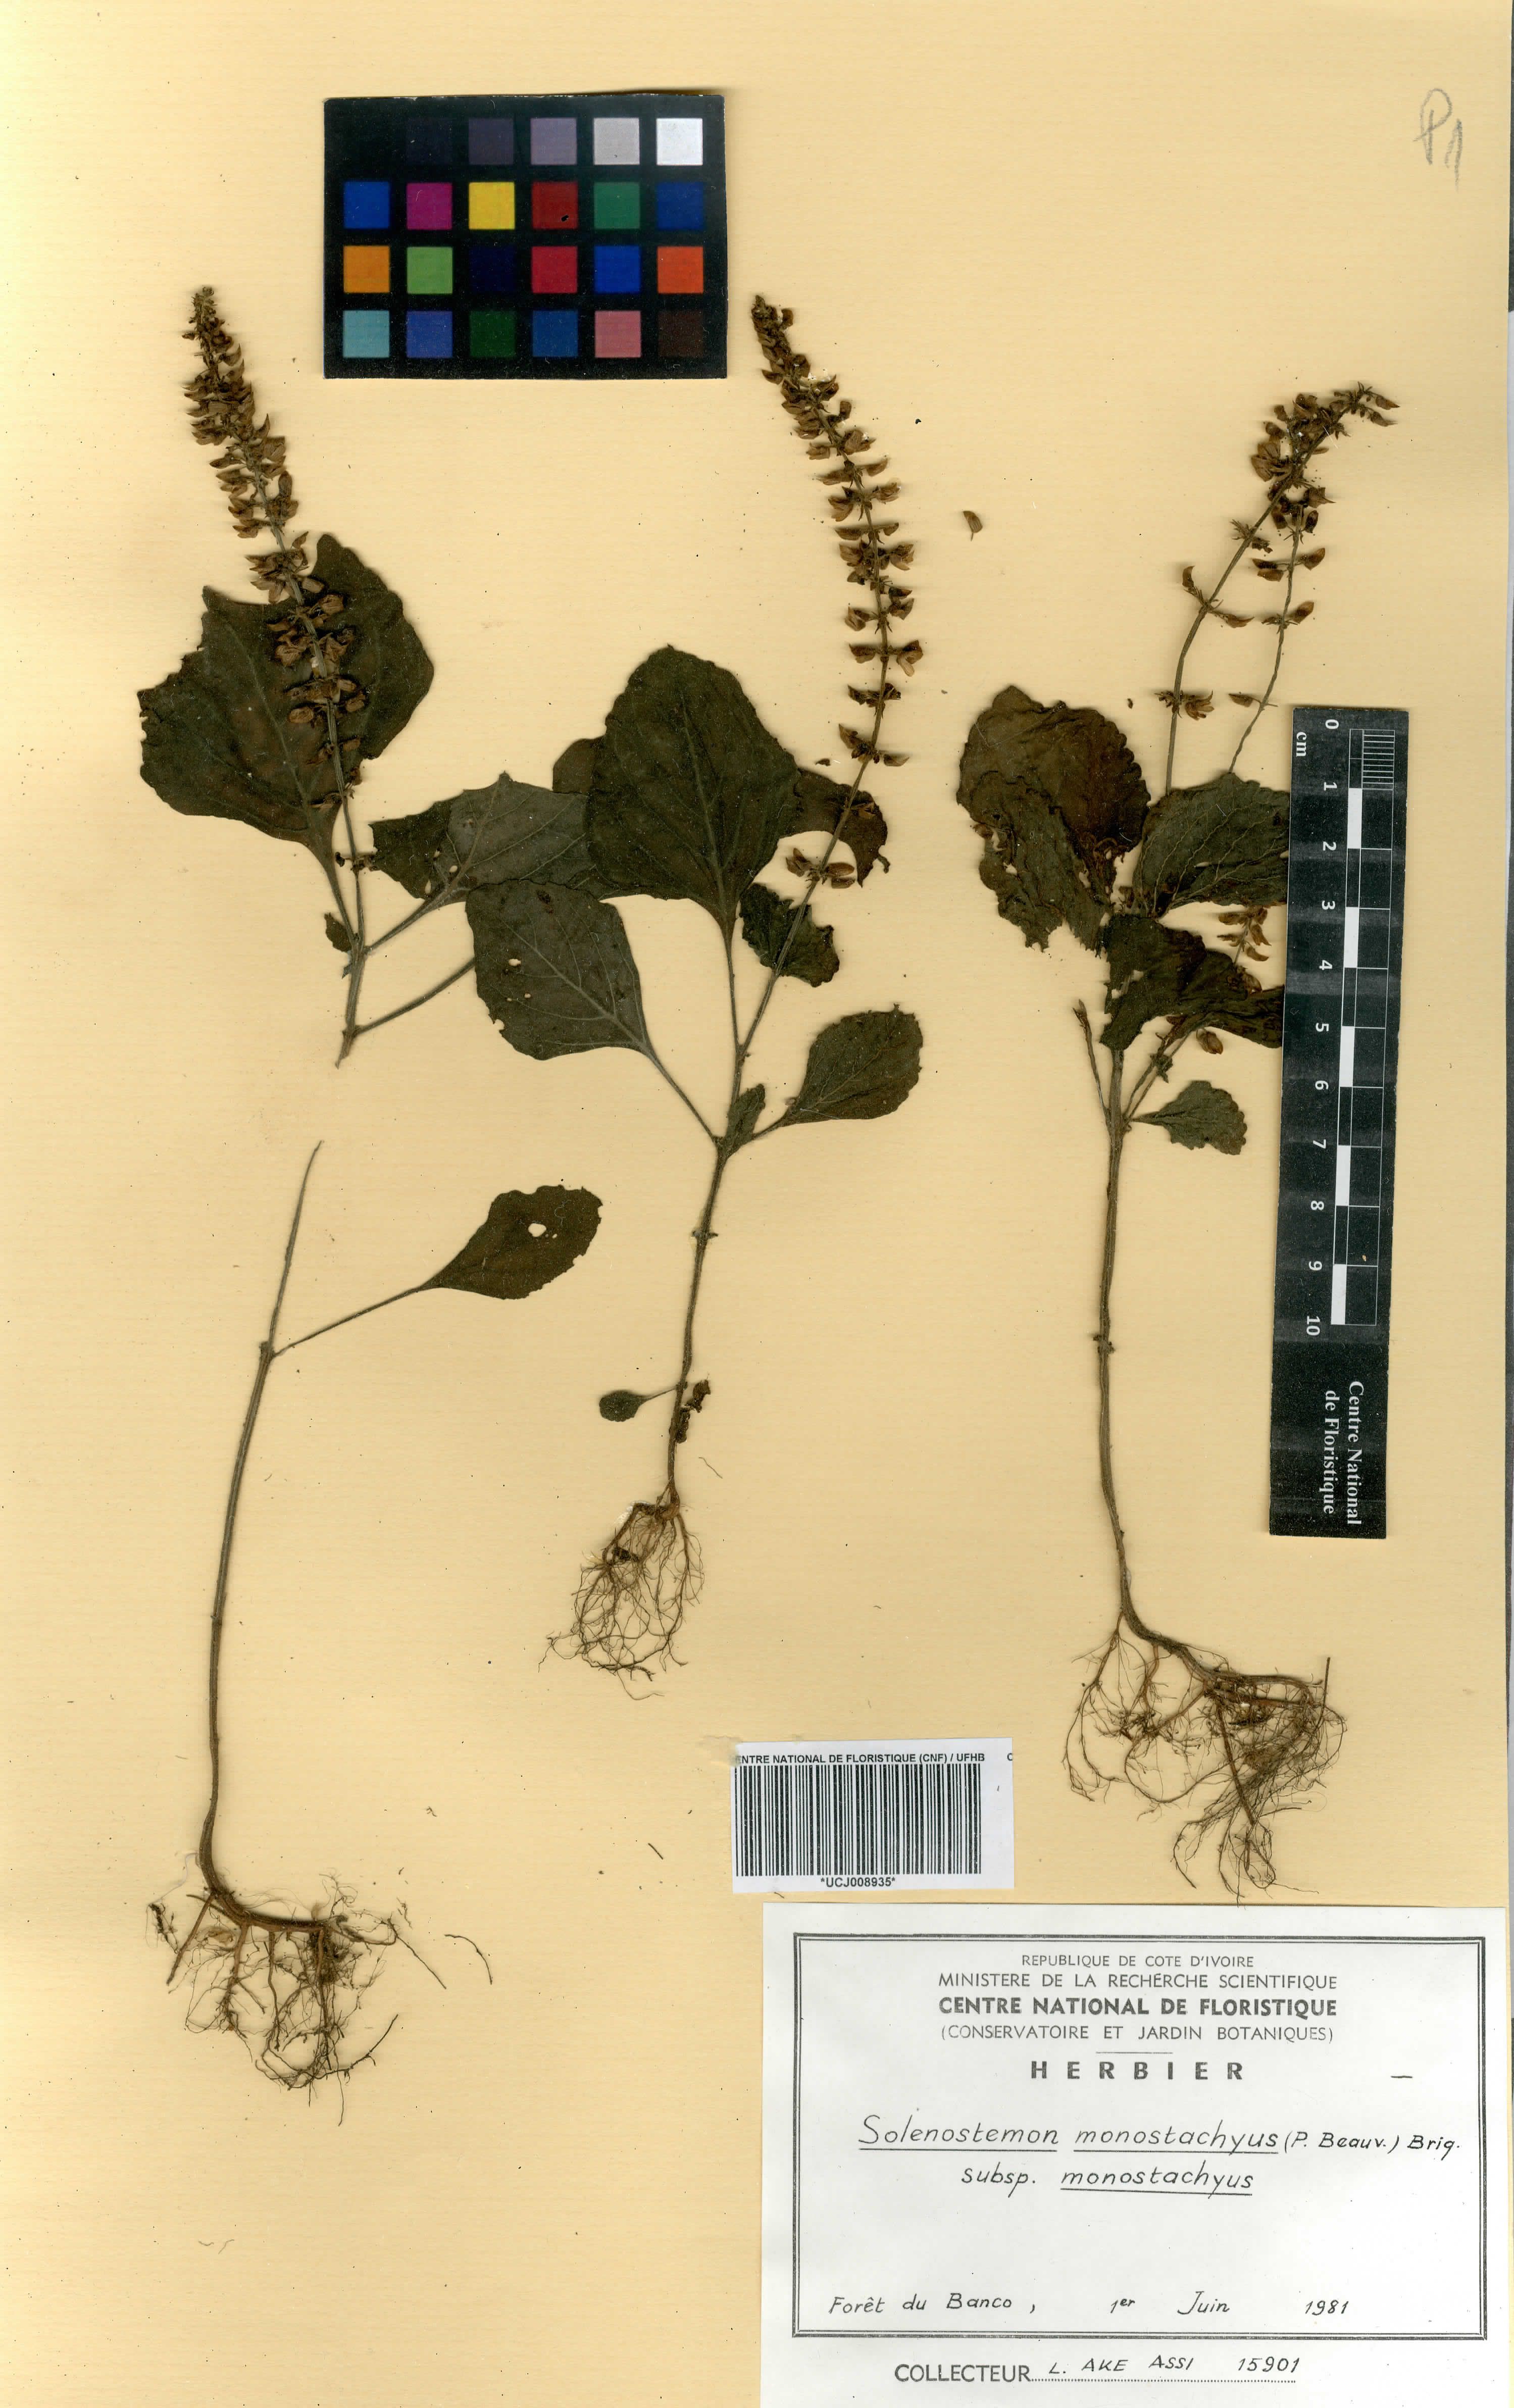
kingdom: Plantae
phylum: Tracheophyta
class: Magnoliopsida
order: Lamiales
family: Lamiaceae
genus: Coleus
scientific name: Coleus monostachyus
